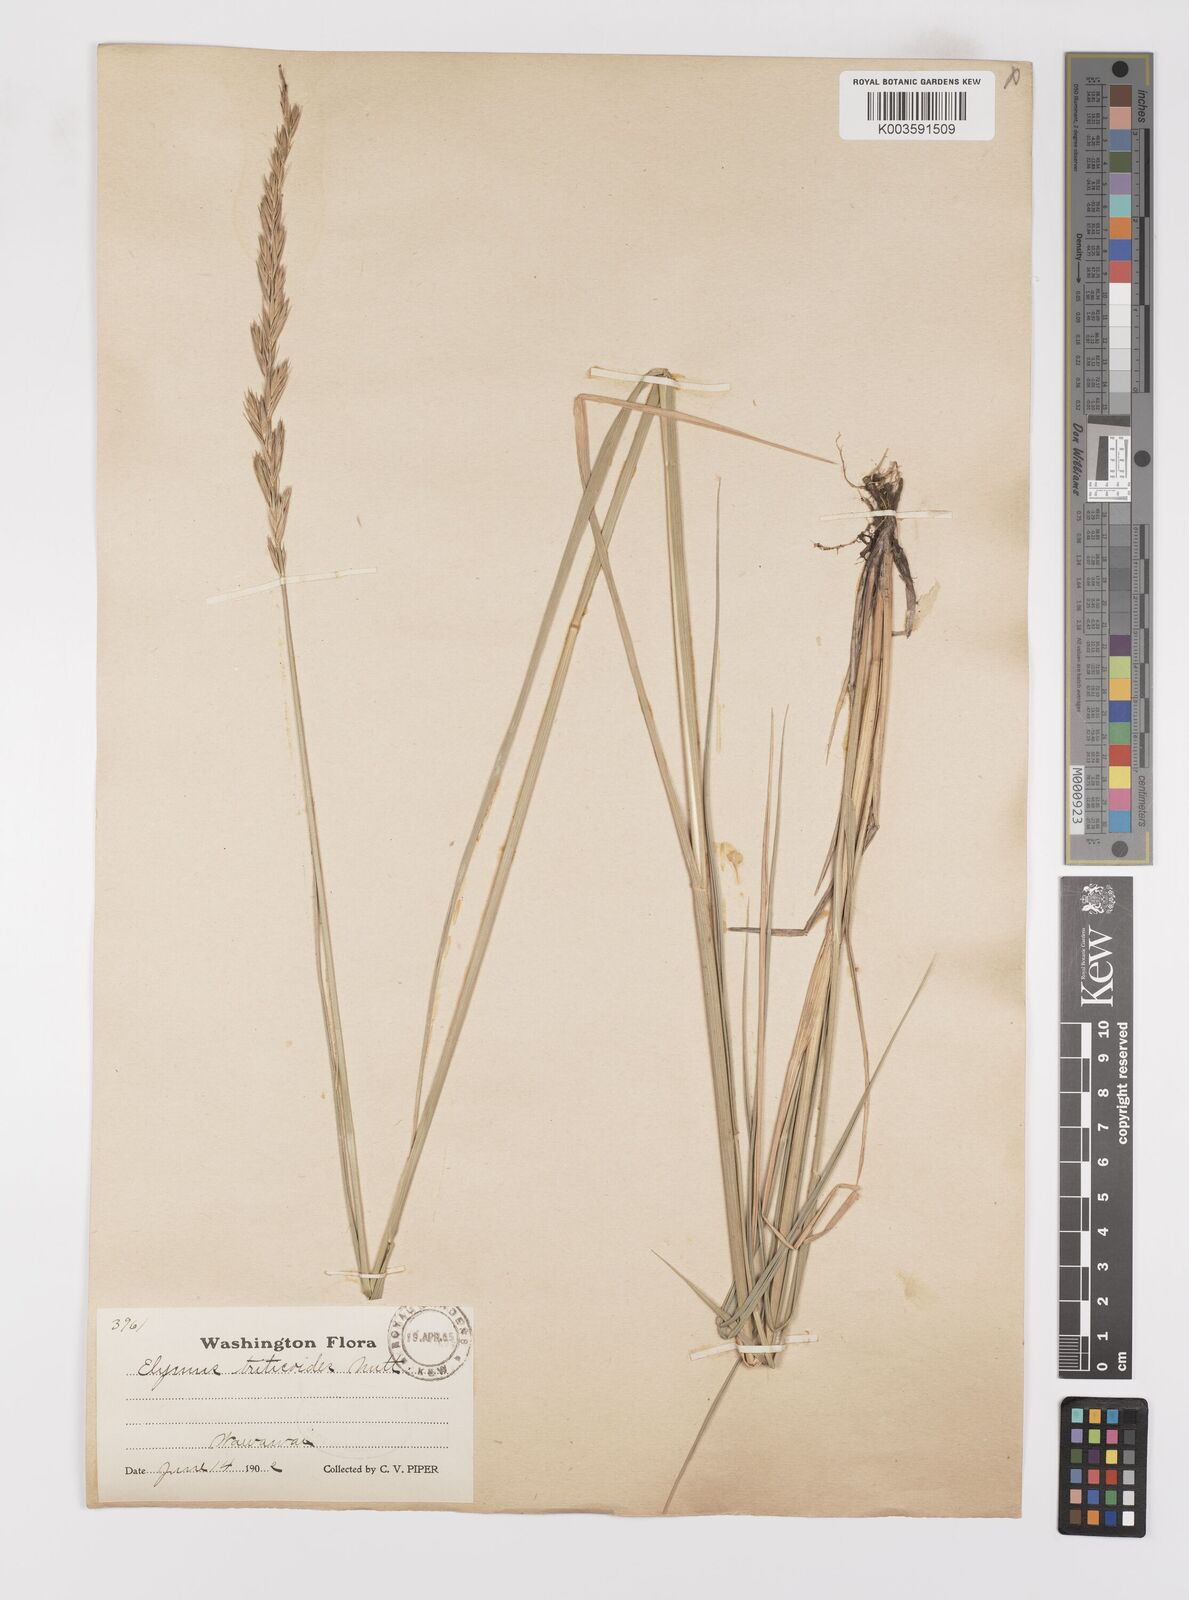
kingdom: Plantae
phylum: Tracheophyta
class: Liliopsida
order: Poales
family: Poaceae
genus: Leymus
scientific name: Leymus triticoides
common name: Beardless wild rye
